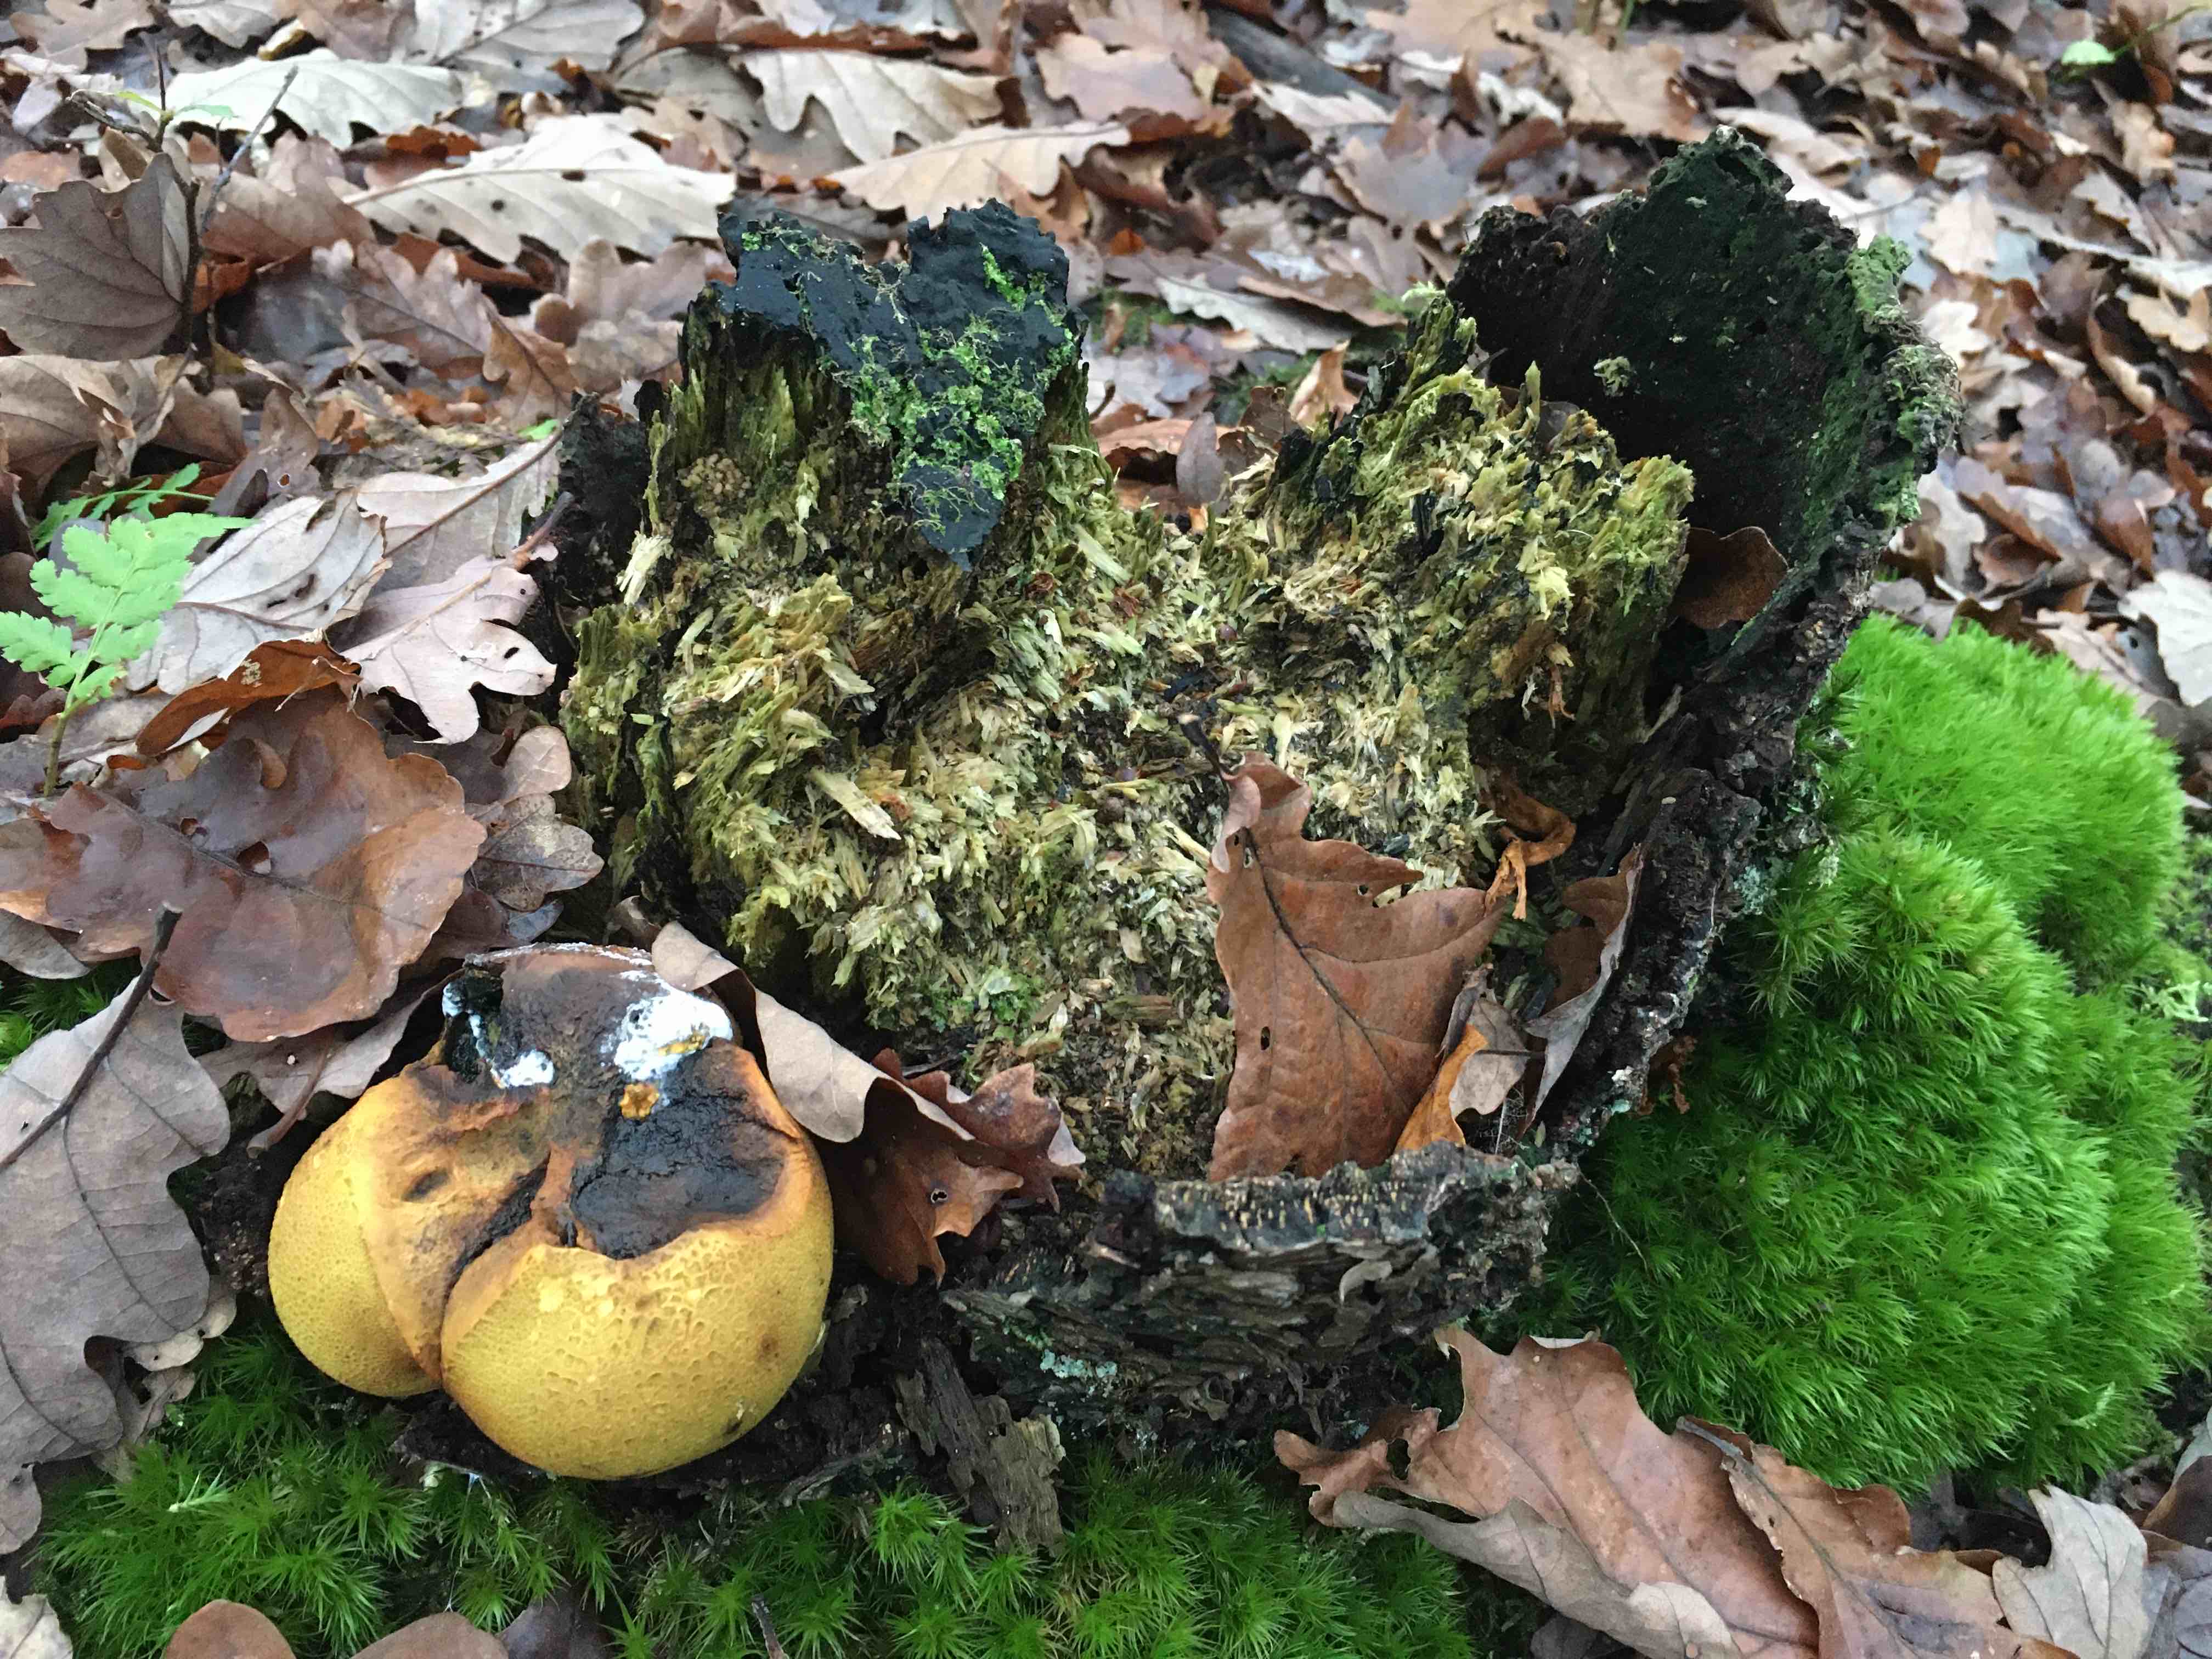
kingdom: Fungi
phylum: Basidiomycota
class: Agaricomycetes
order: Boletales
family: Sclerodermataceae
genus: Scleroderma
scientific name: Scleroderma citrinum
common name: almindelig bruskbold
